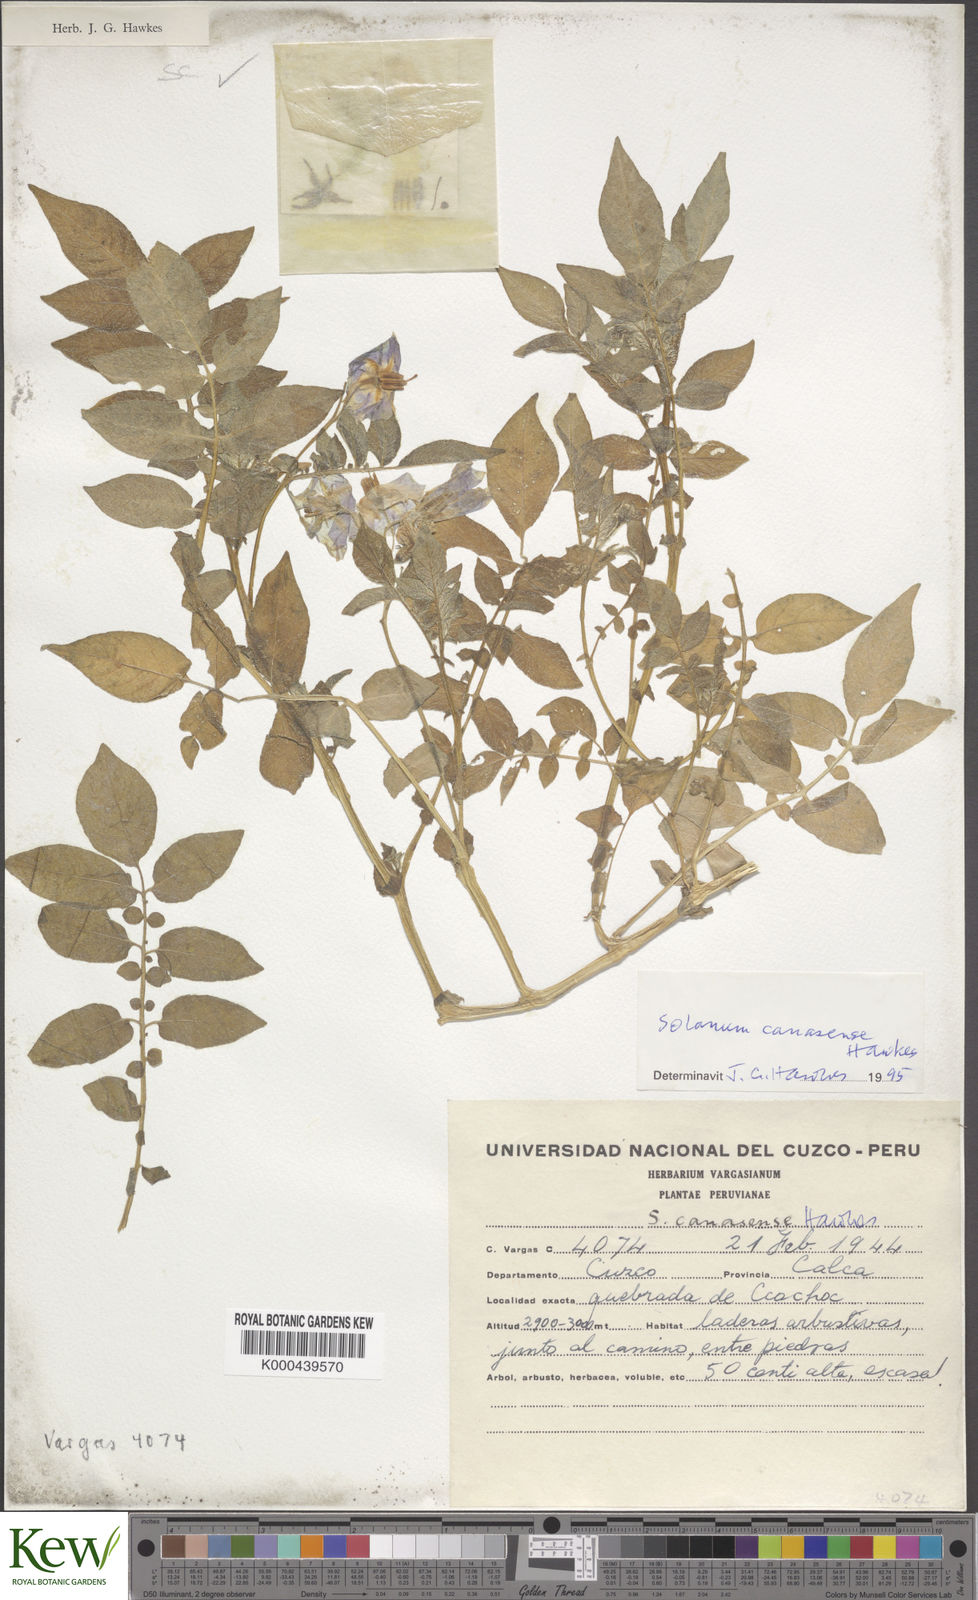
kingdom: Plantae
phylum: Tracheophyta
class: Magnoliopsida
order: Solanales
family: Solanaceae
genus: Solanum
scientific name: Solanum candolleanum
